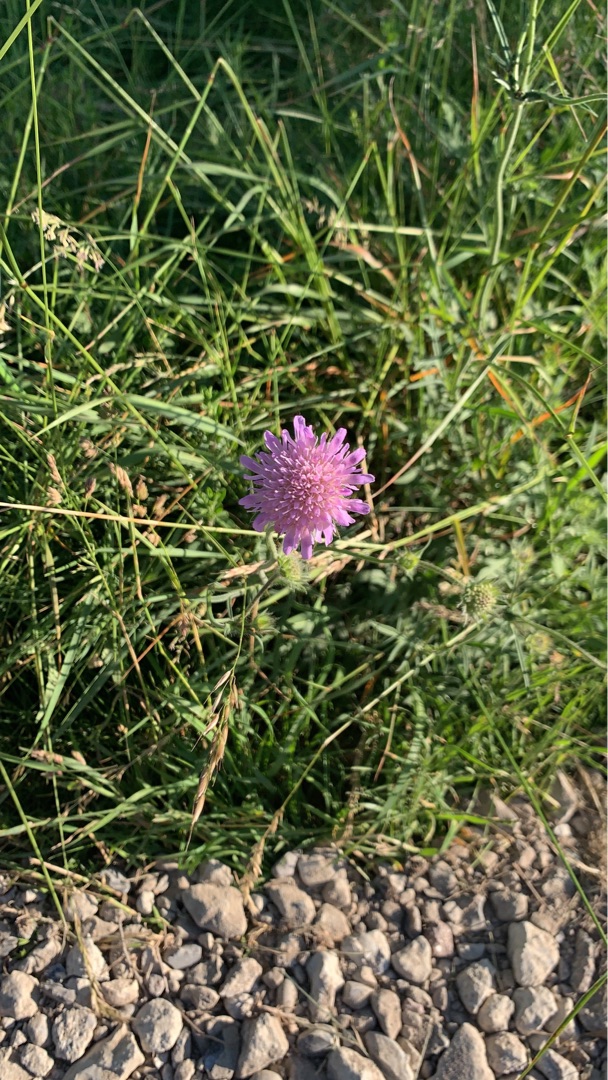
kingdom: Plantae
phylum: Tracheophyta
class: Magnoliopsida
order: Dipsacales
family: Caprifoliaceae
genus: Knautia
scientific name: Knautia arvensis
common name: Blåhat
